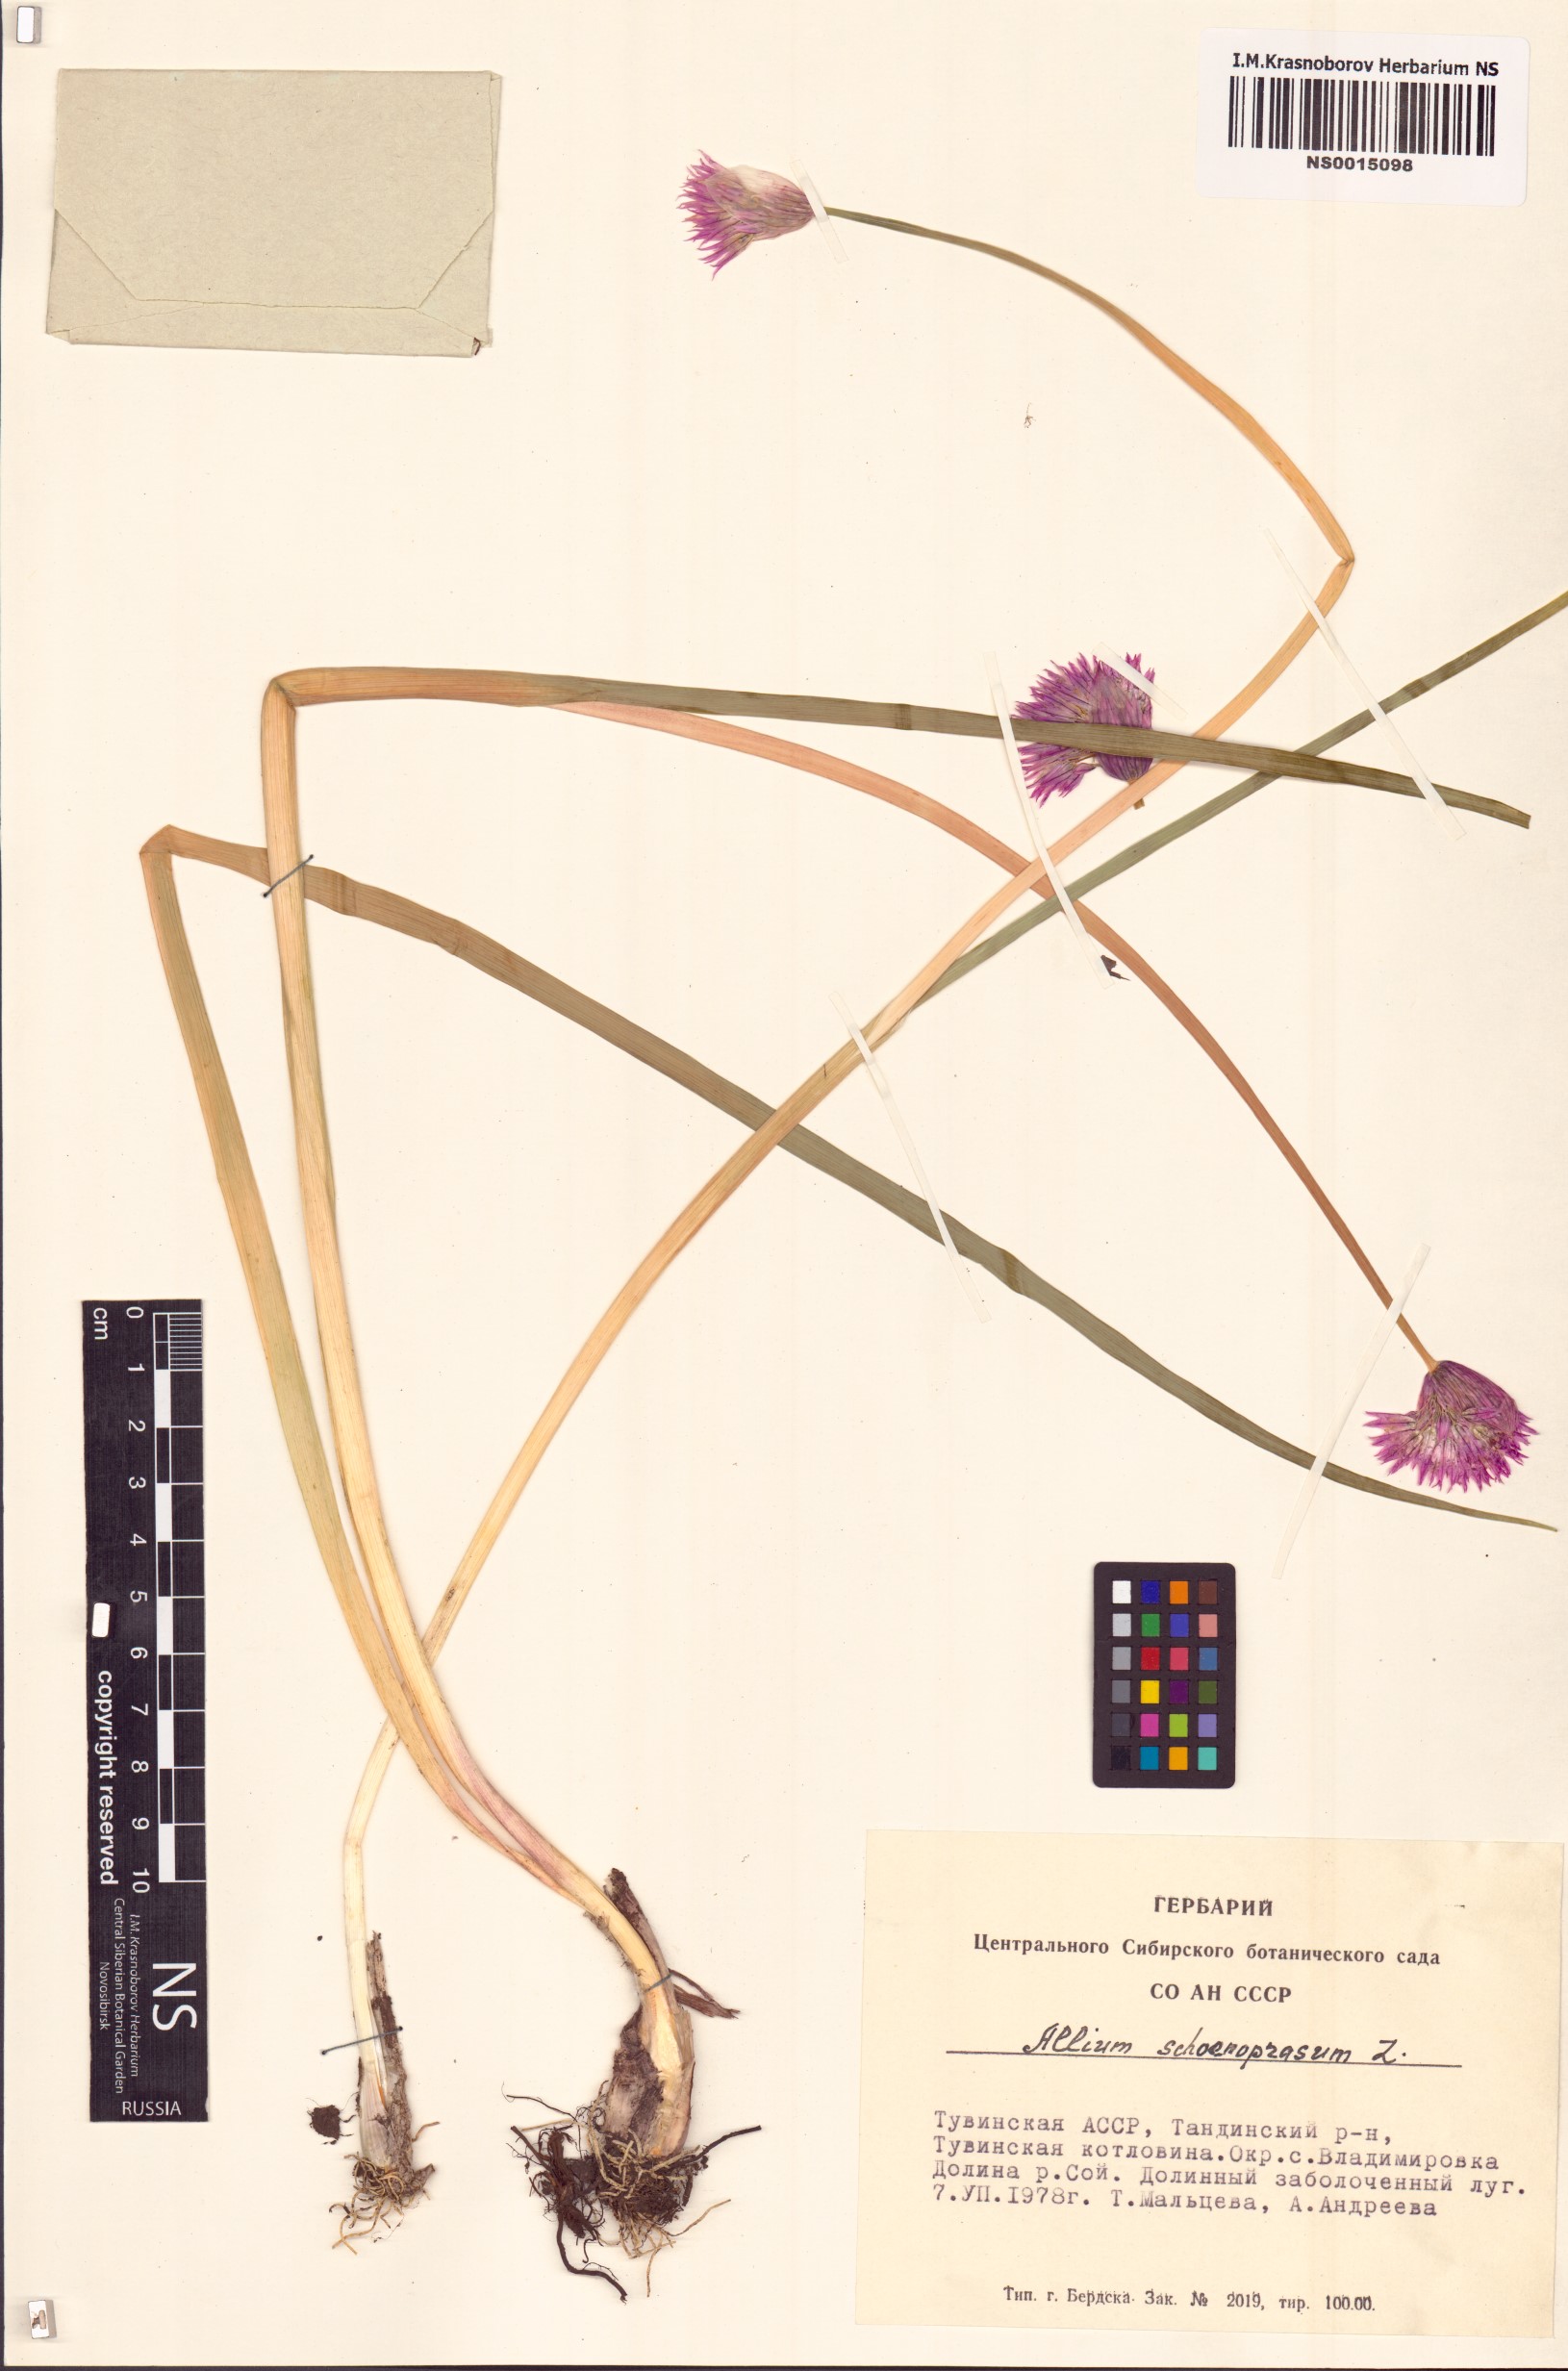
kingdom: Plantae
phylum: Tracheophyta
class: Liliopsida
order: Asparagales
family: Amaryllidaceae
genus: Allium
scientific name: Allium schoenoprasum
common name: Chives
